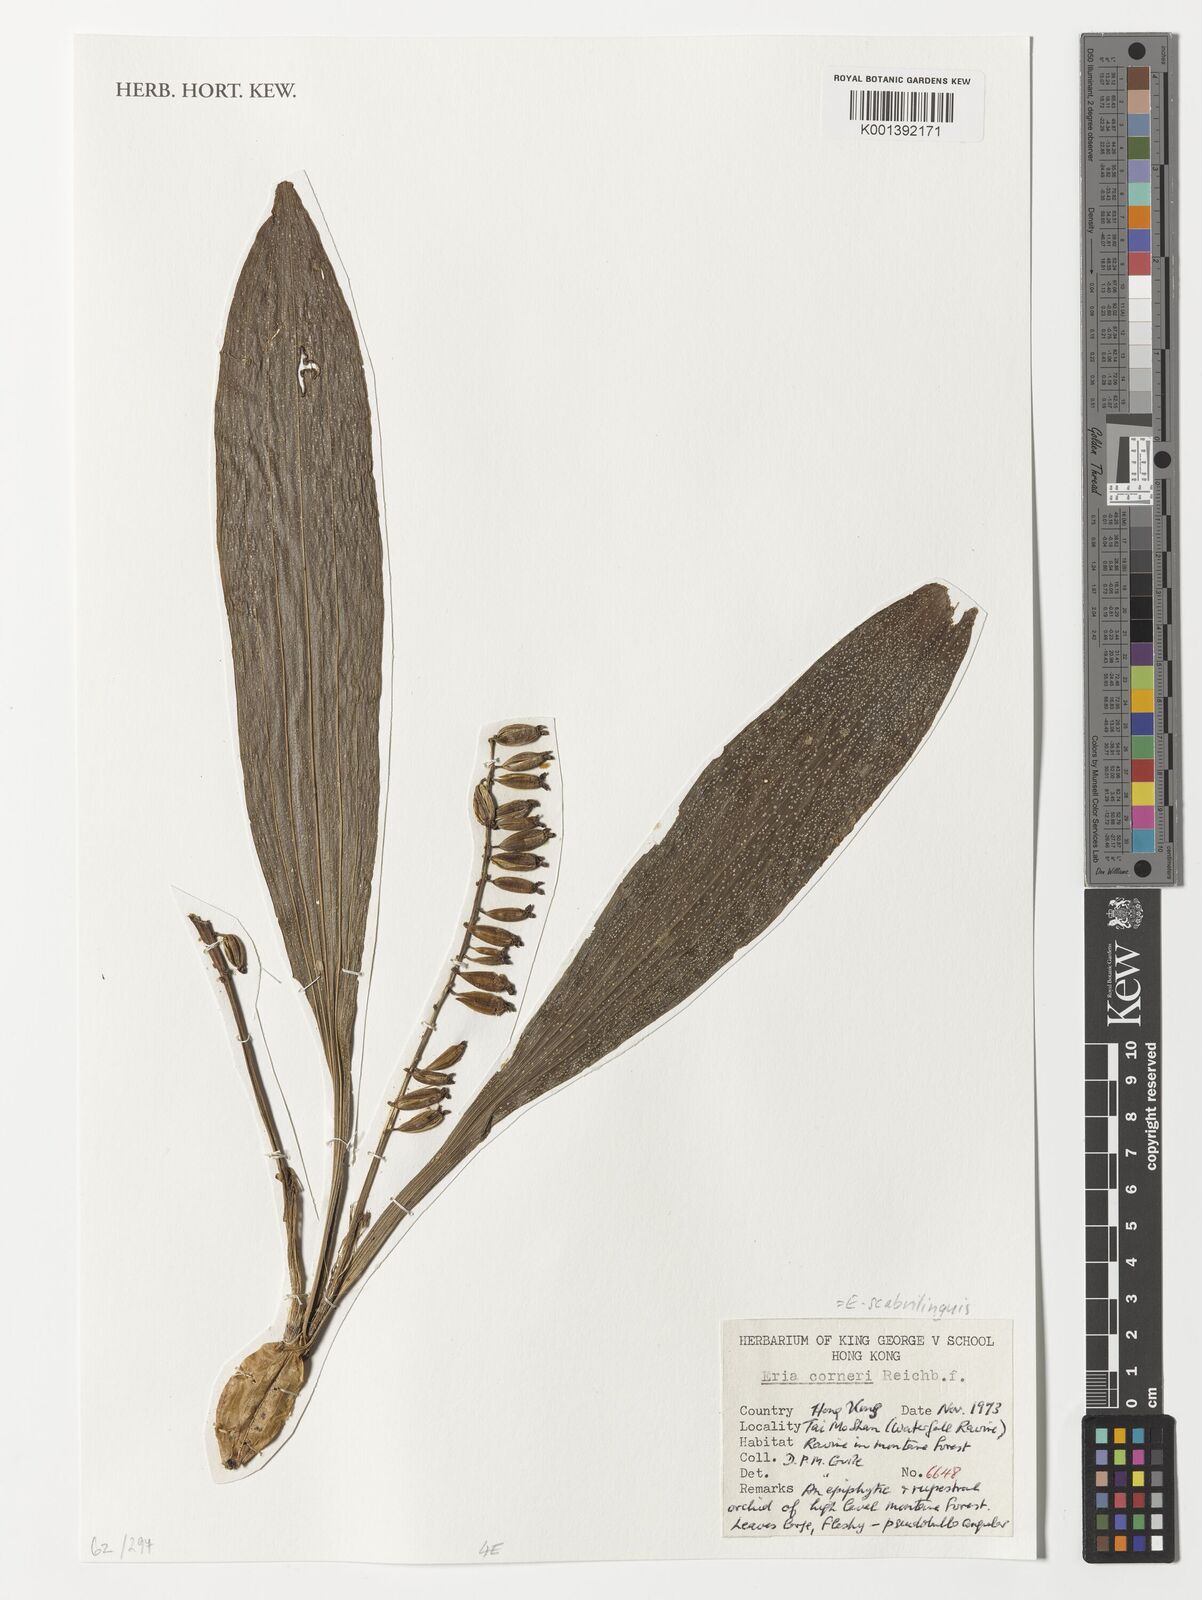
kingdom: Plantae
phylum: Tracheophyta
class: Liliopsida
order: Asparagales
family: Orchidaceae
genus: Eria
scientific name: Eria scabrilinguis
